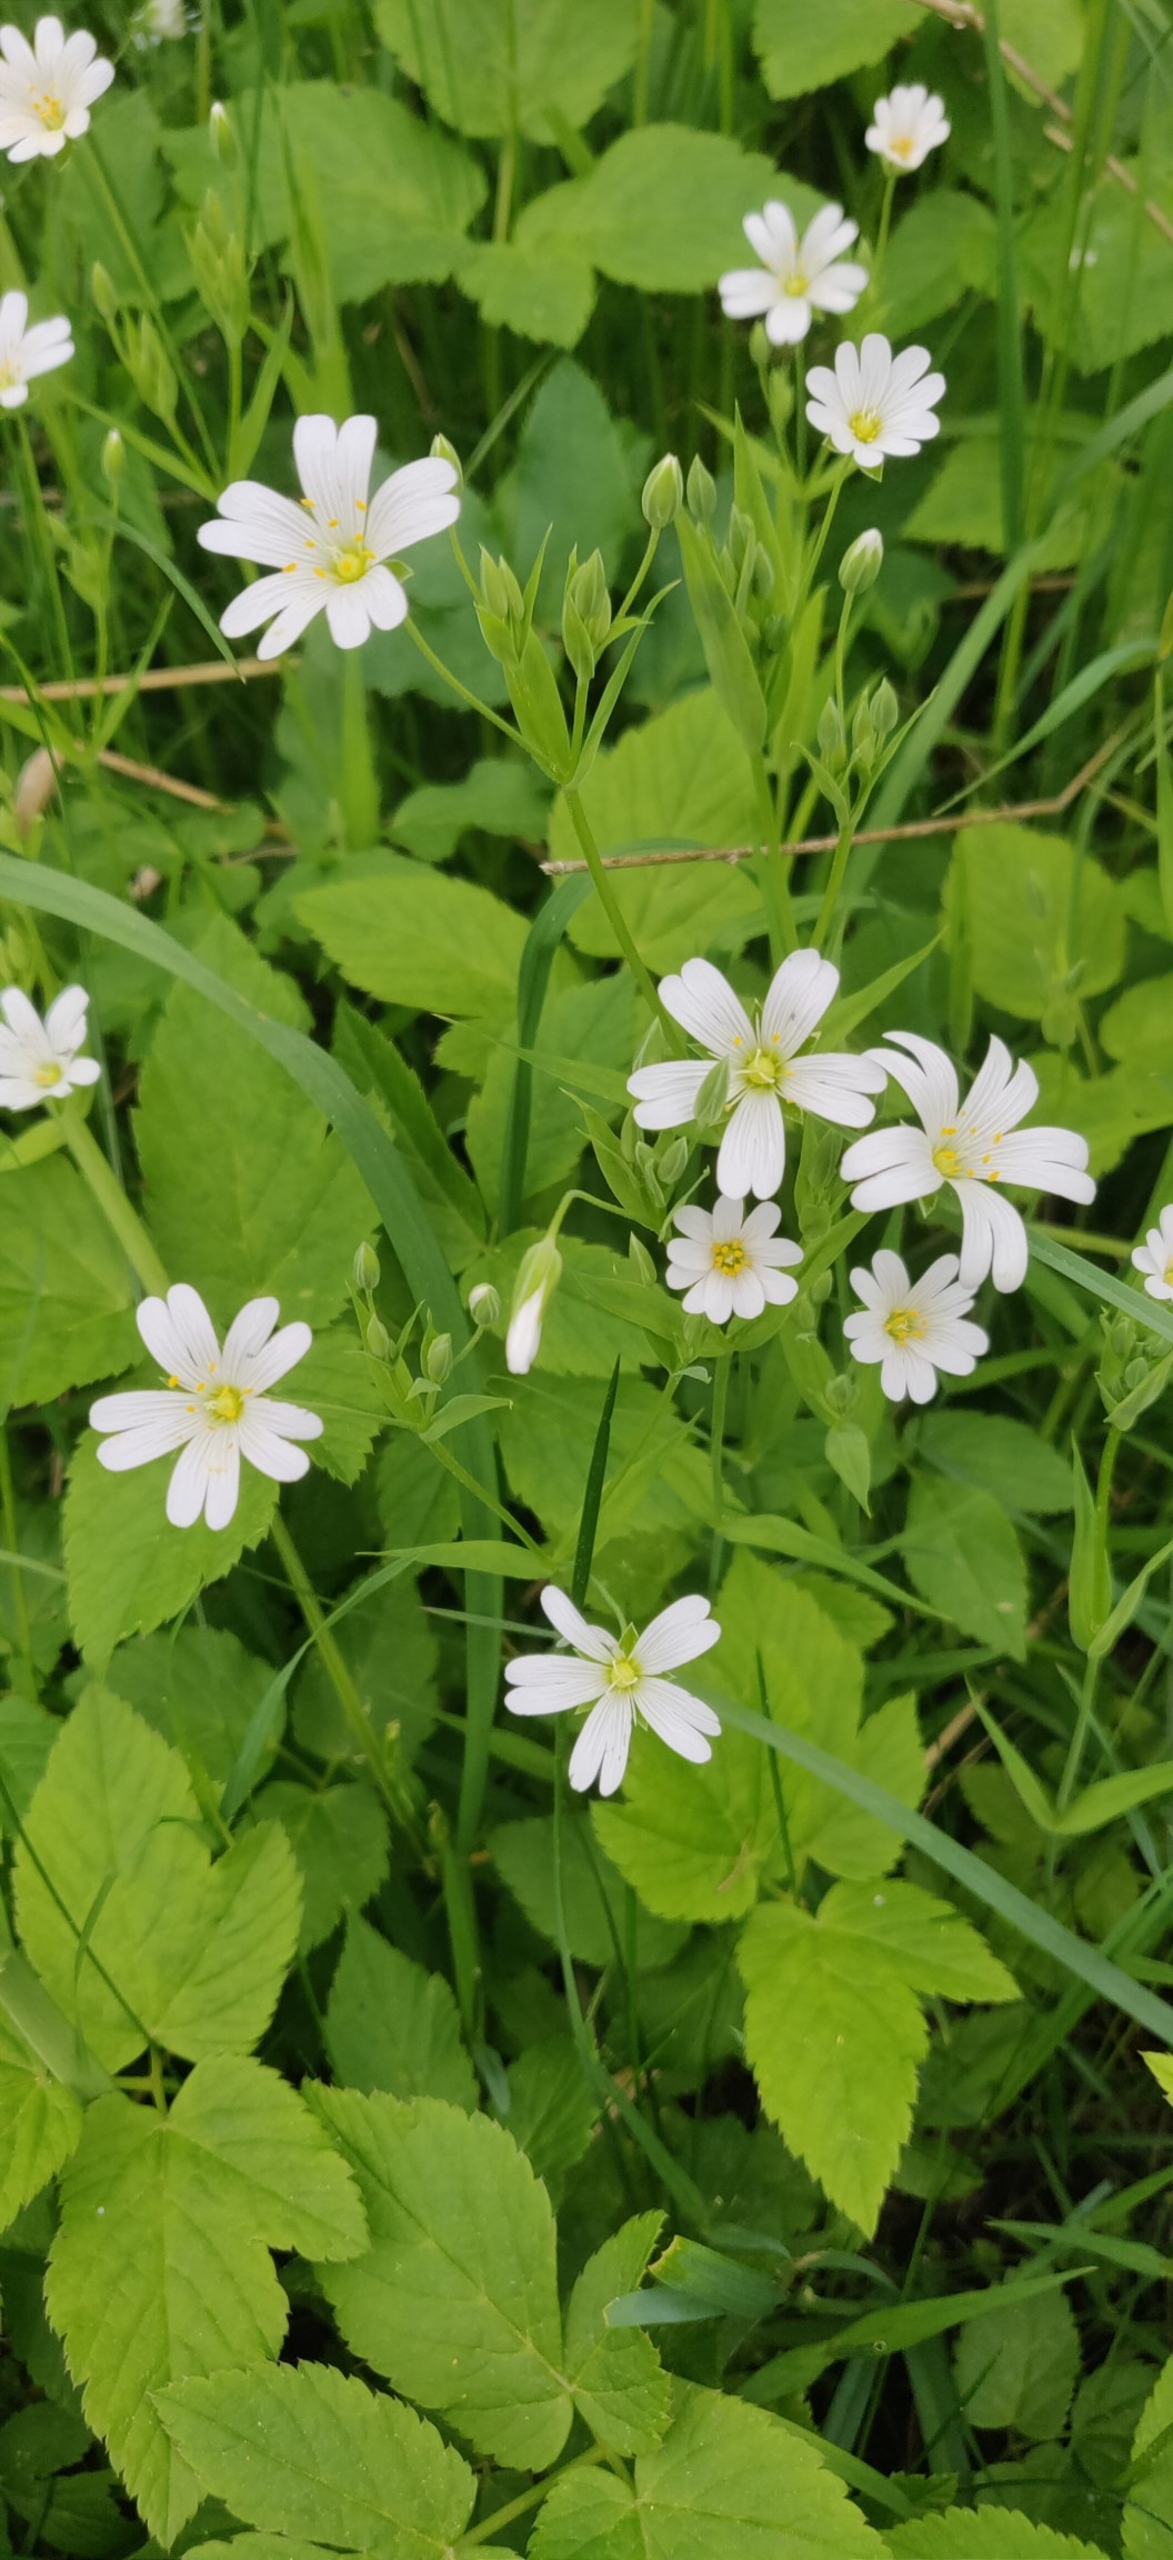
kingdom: Plantae
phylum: Tracheophyta
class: Magnoliopsida
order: Caryophyllales
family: Caryophyllaceae
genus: Rabelera
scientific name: Rabelera holostea
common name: Stor fladstjerne
